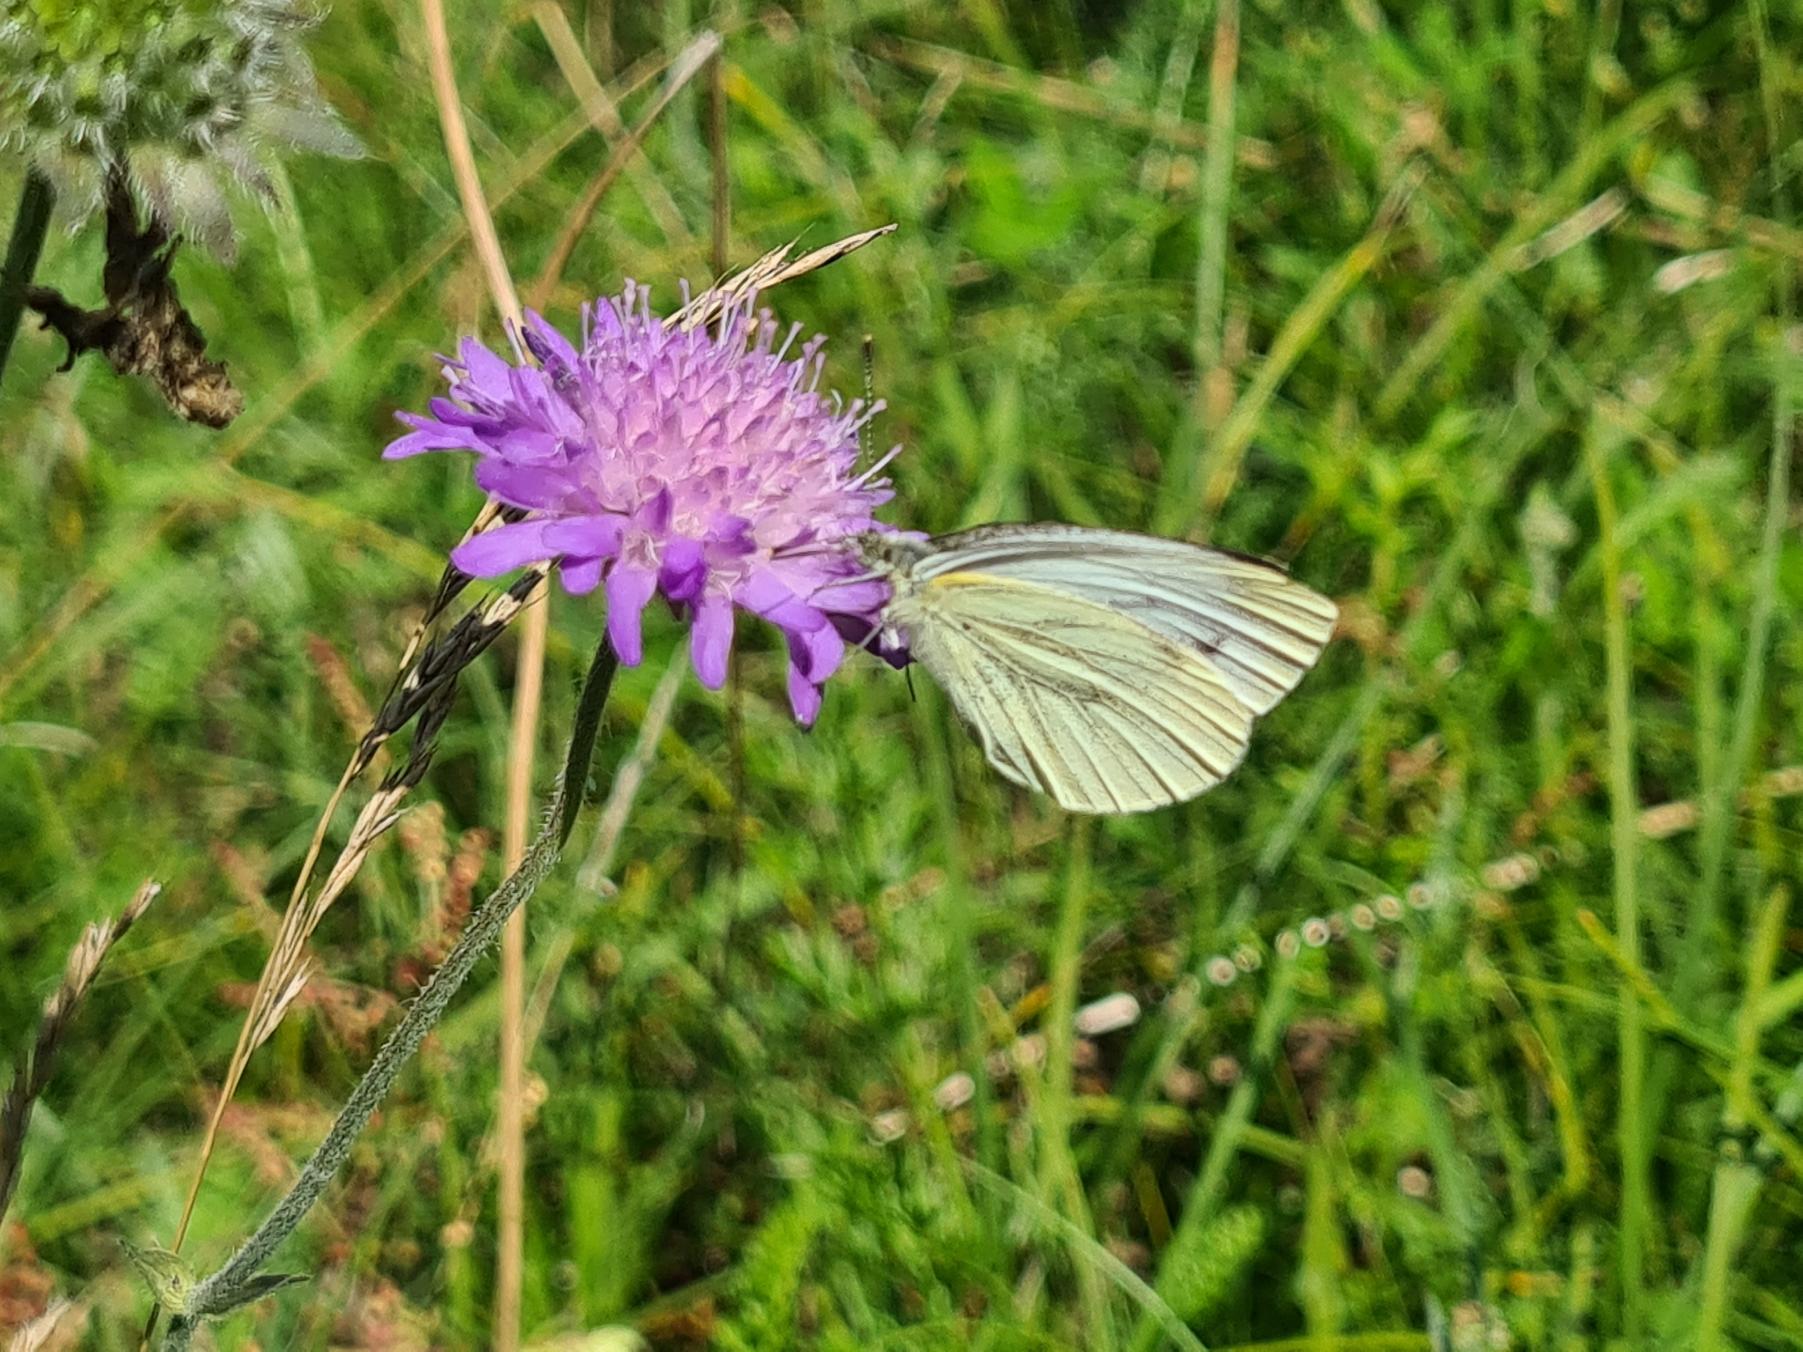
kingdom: Animalia
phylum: Arthropoda
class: Insecta
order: Lepidoptera
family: Pieridae
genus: Pieris
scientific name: Pieris napi
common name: Grønåret kålsommerfugl
